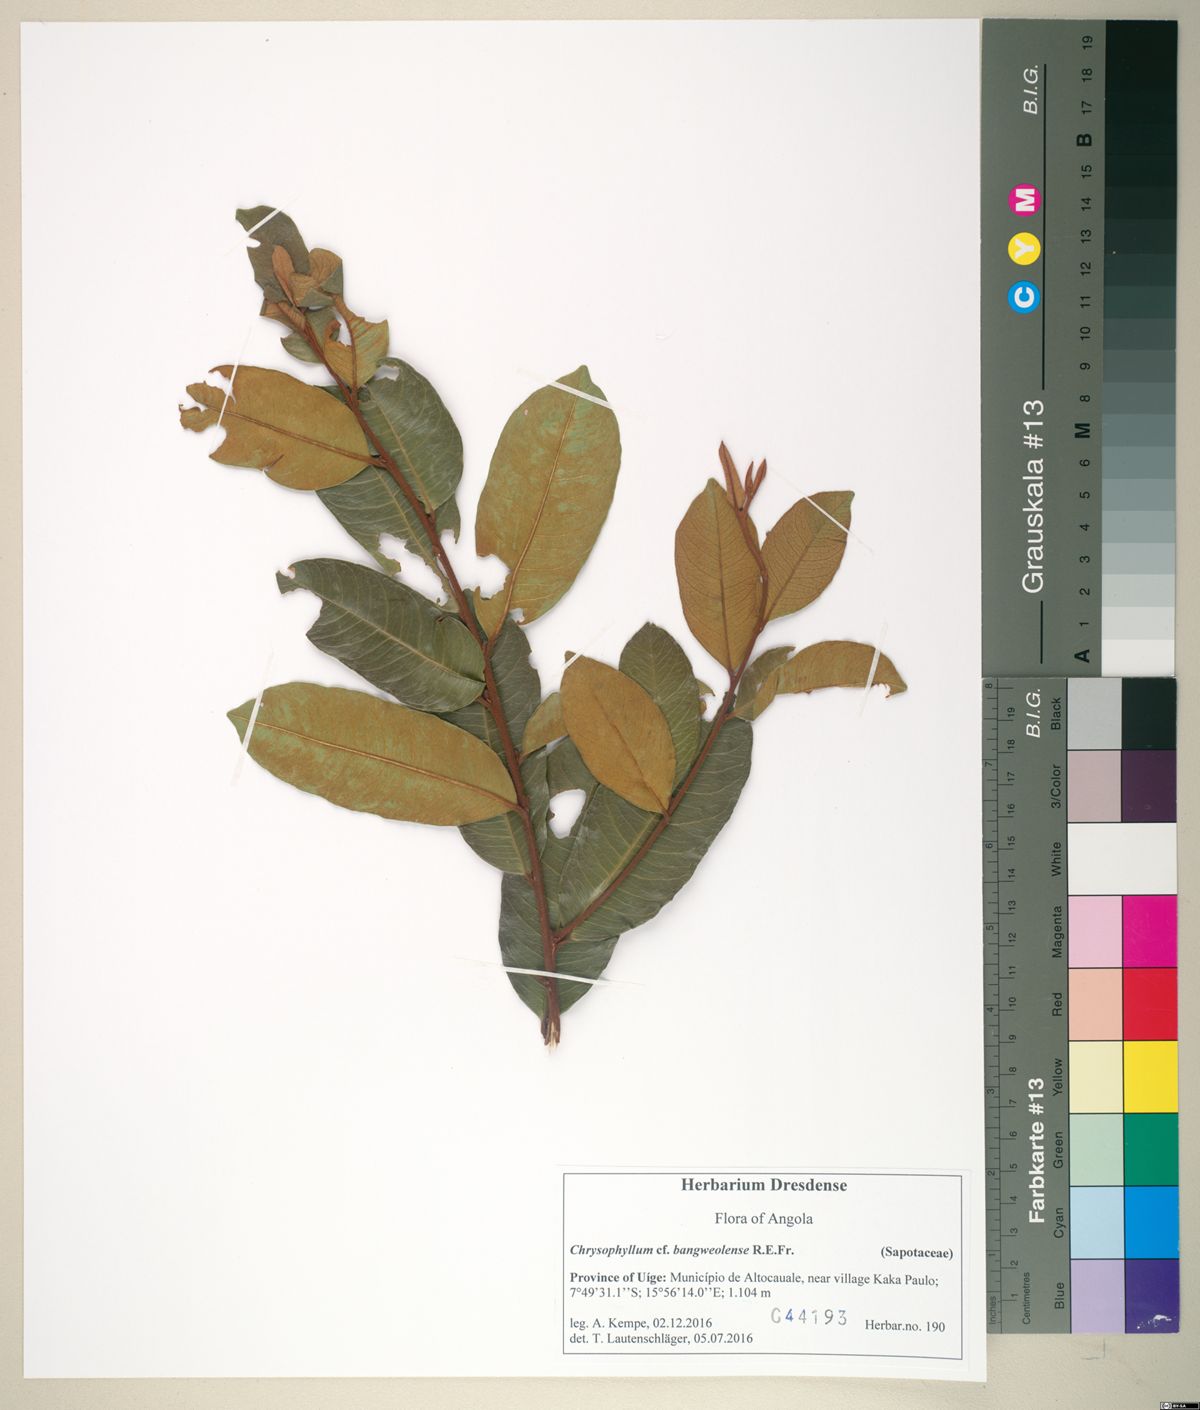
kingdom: Plantae
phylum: Tracheophyta
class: Magnoliopsida
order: Ericales
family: Sapotaceae
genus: Donella
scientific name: Donella bangweolensis
